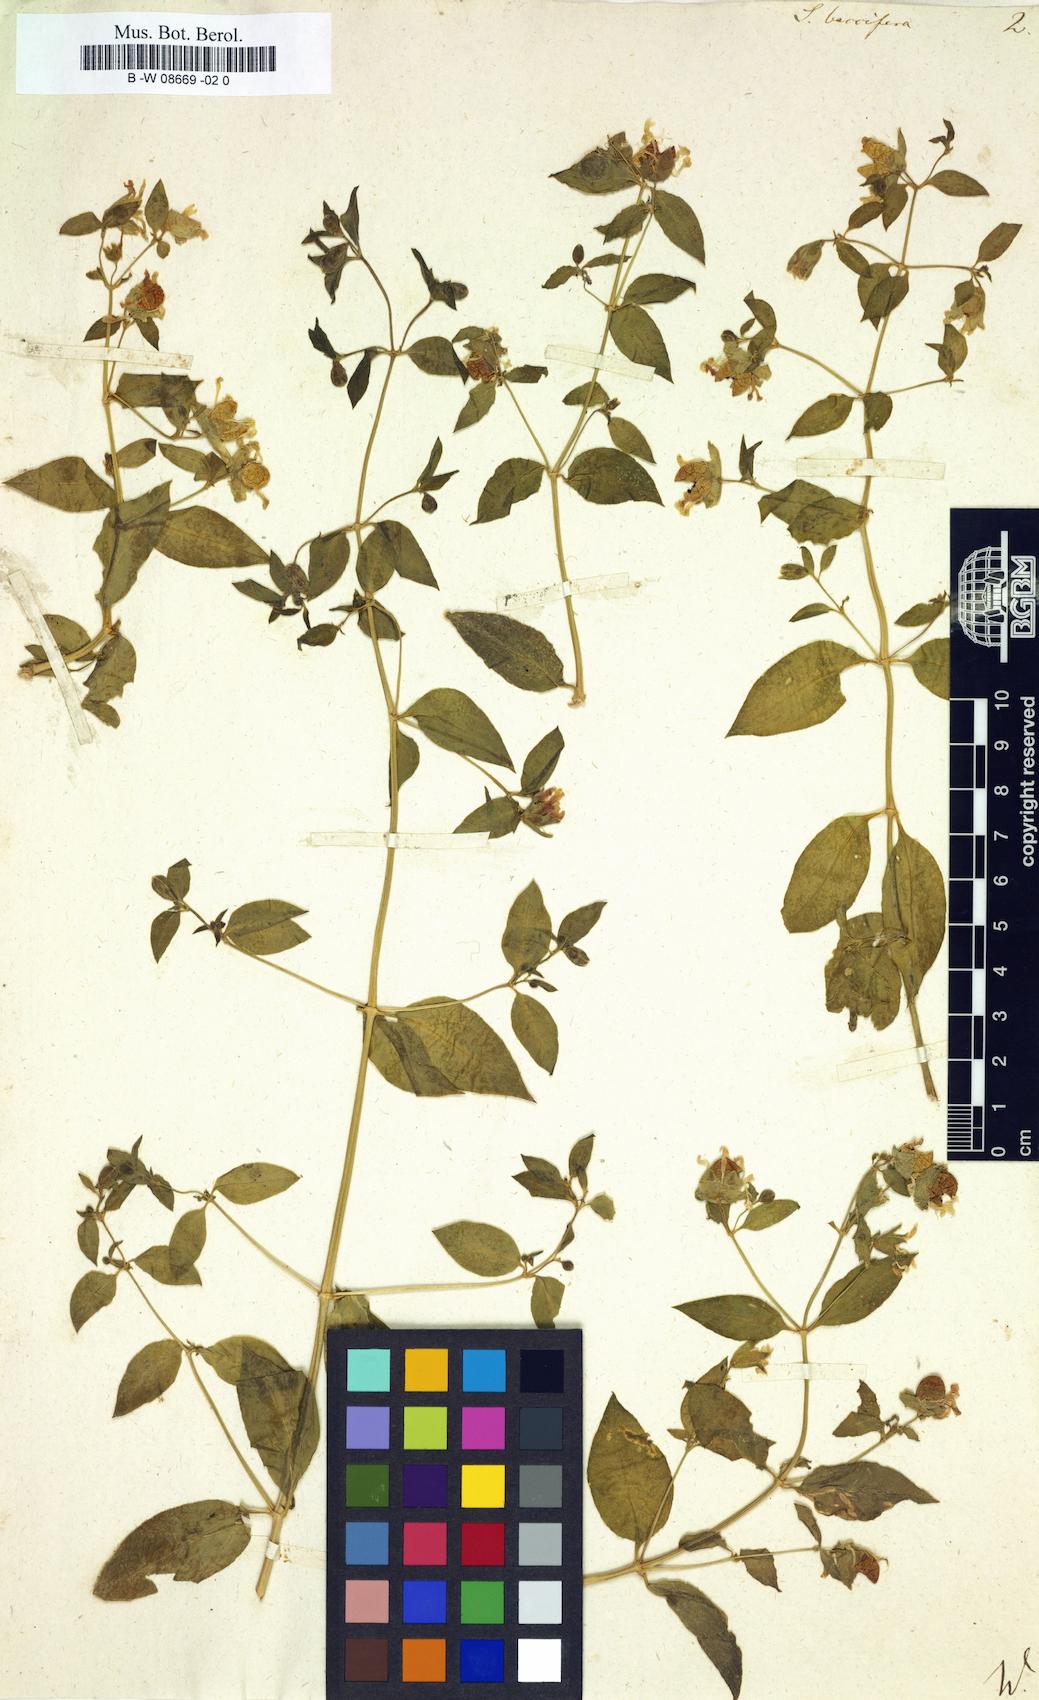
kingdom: Plantae
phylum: Tracheophyta
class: Magnoliopsida
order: Caryophyllales
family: Caryophyllaceae
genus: Silene
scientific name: Silene baccifera
